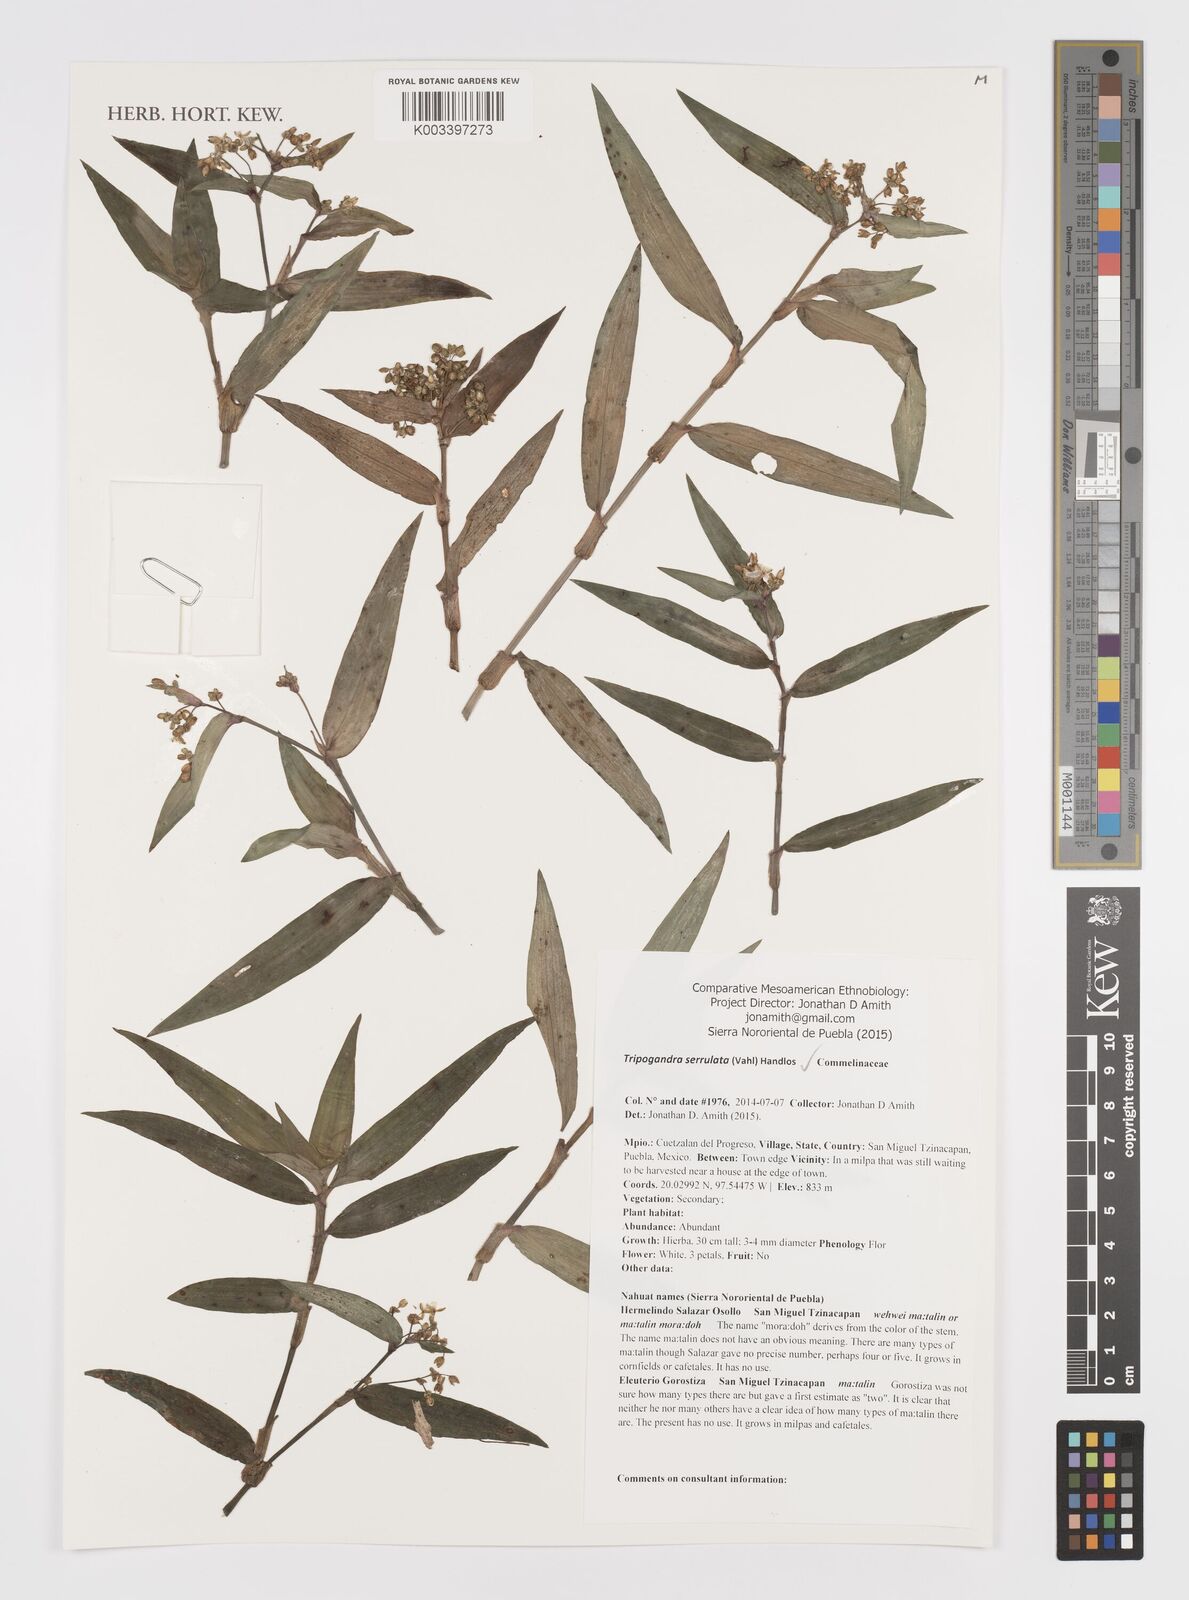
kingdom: Plantae
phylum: Tracheophyta
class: Liliopsida
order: Commelinales
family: Commelinaceae
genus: Callisia
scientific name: Callisia serrulata
